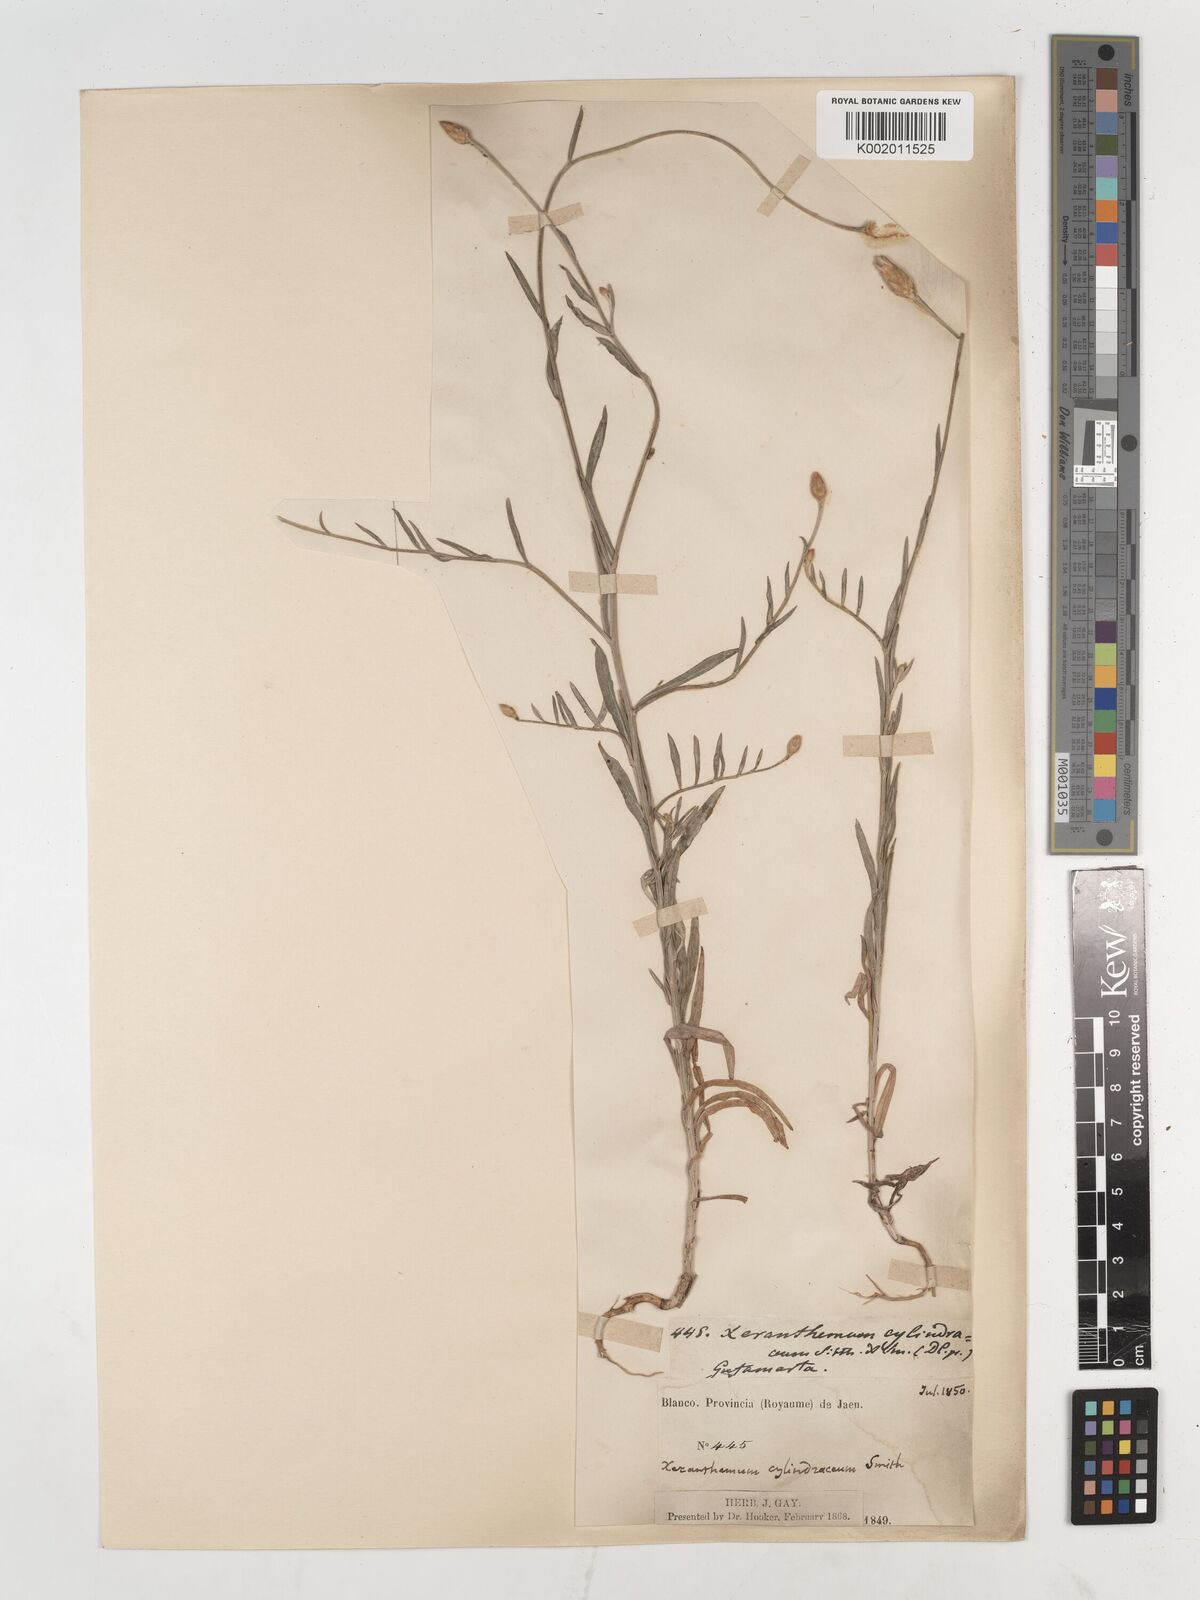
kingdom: Plantae
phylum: Tracheophyta
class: Magnoliopsida
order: Asterales
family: Asteraceae
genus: Xeranthemum
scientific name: Xeranthemum cylindraceum
